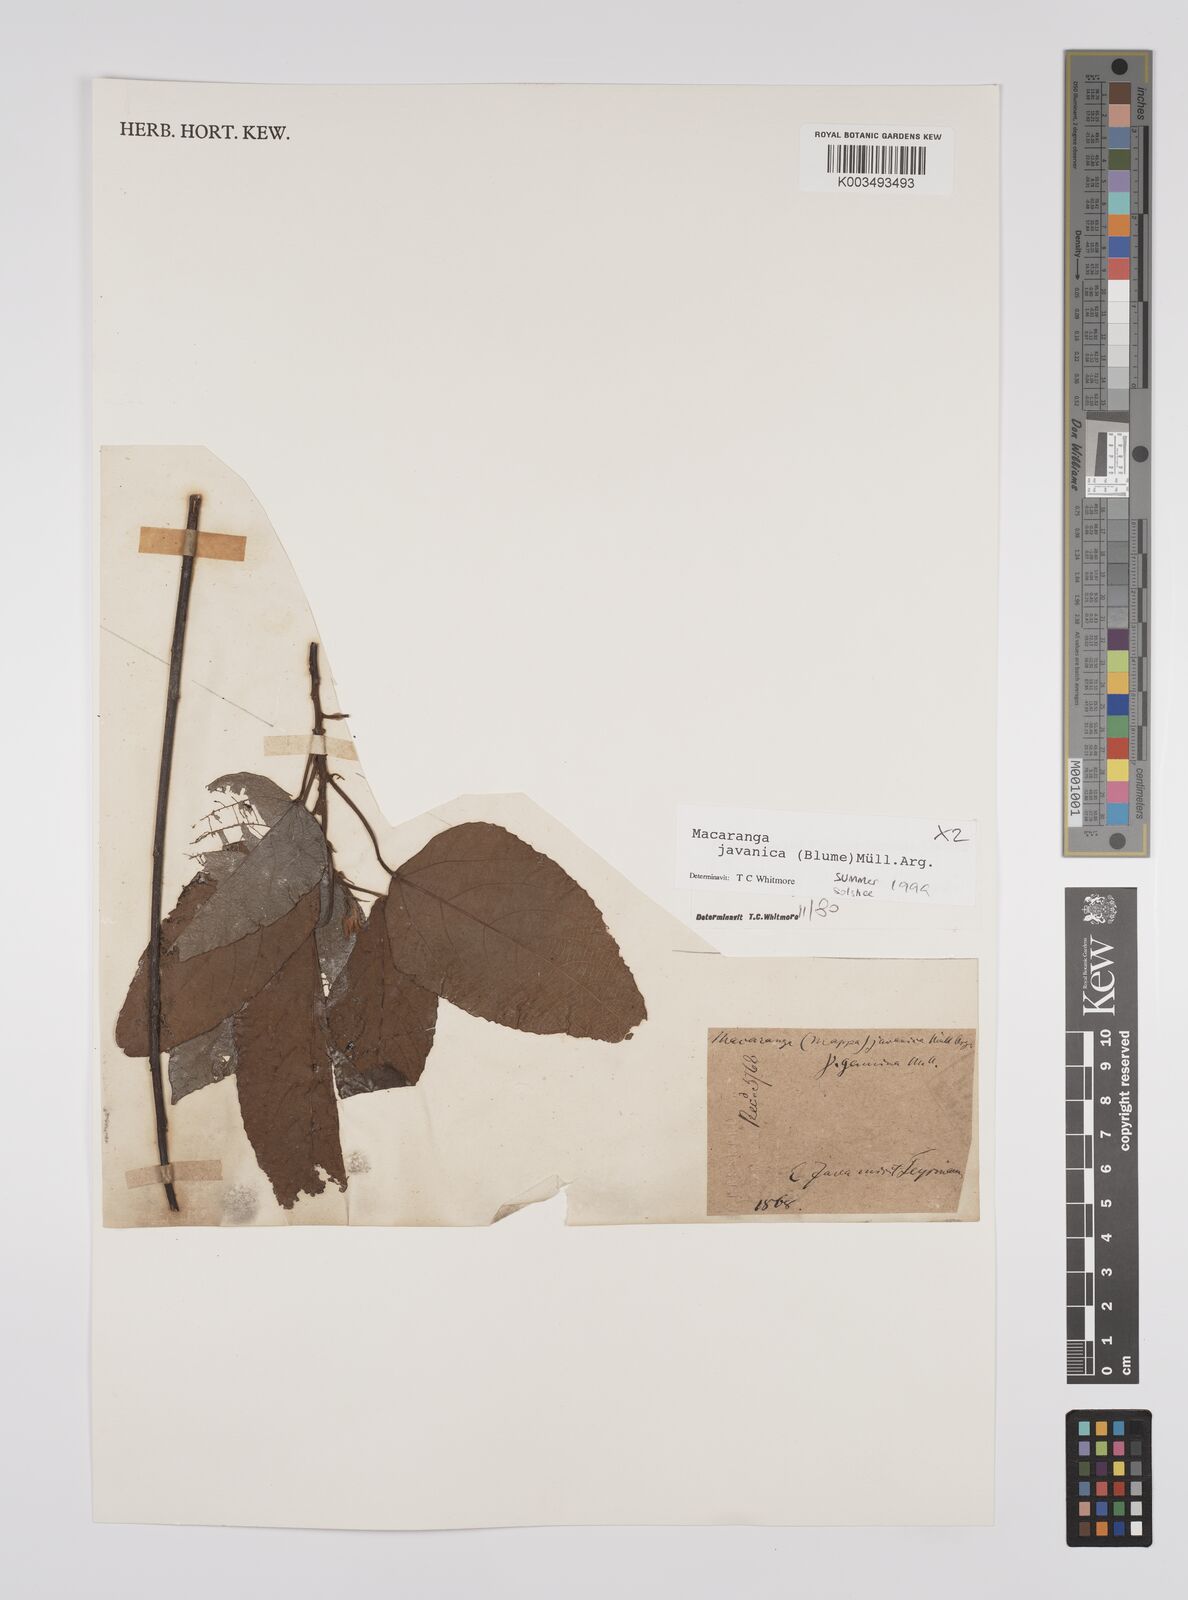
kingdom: Plantae
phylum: Tracheophyta
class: Magnoliopsida
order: Malpighiales
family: Euphorbiaceae
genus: Macaranga
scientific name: Macaranga javanica
